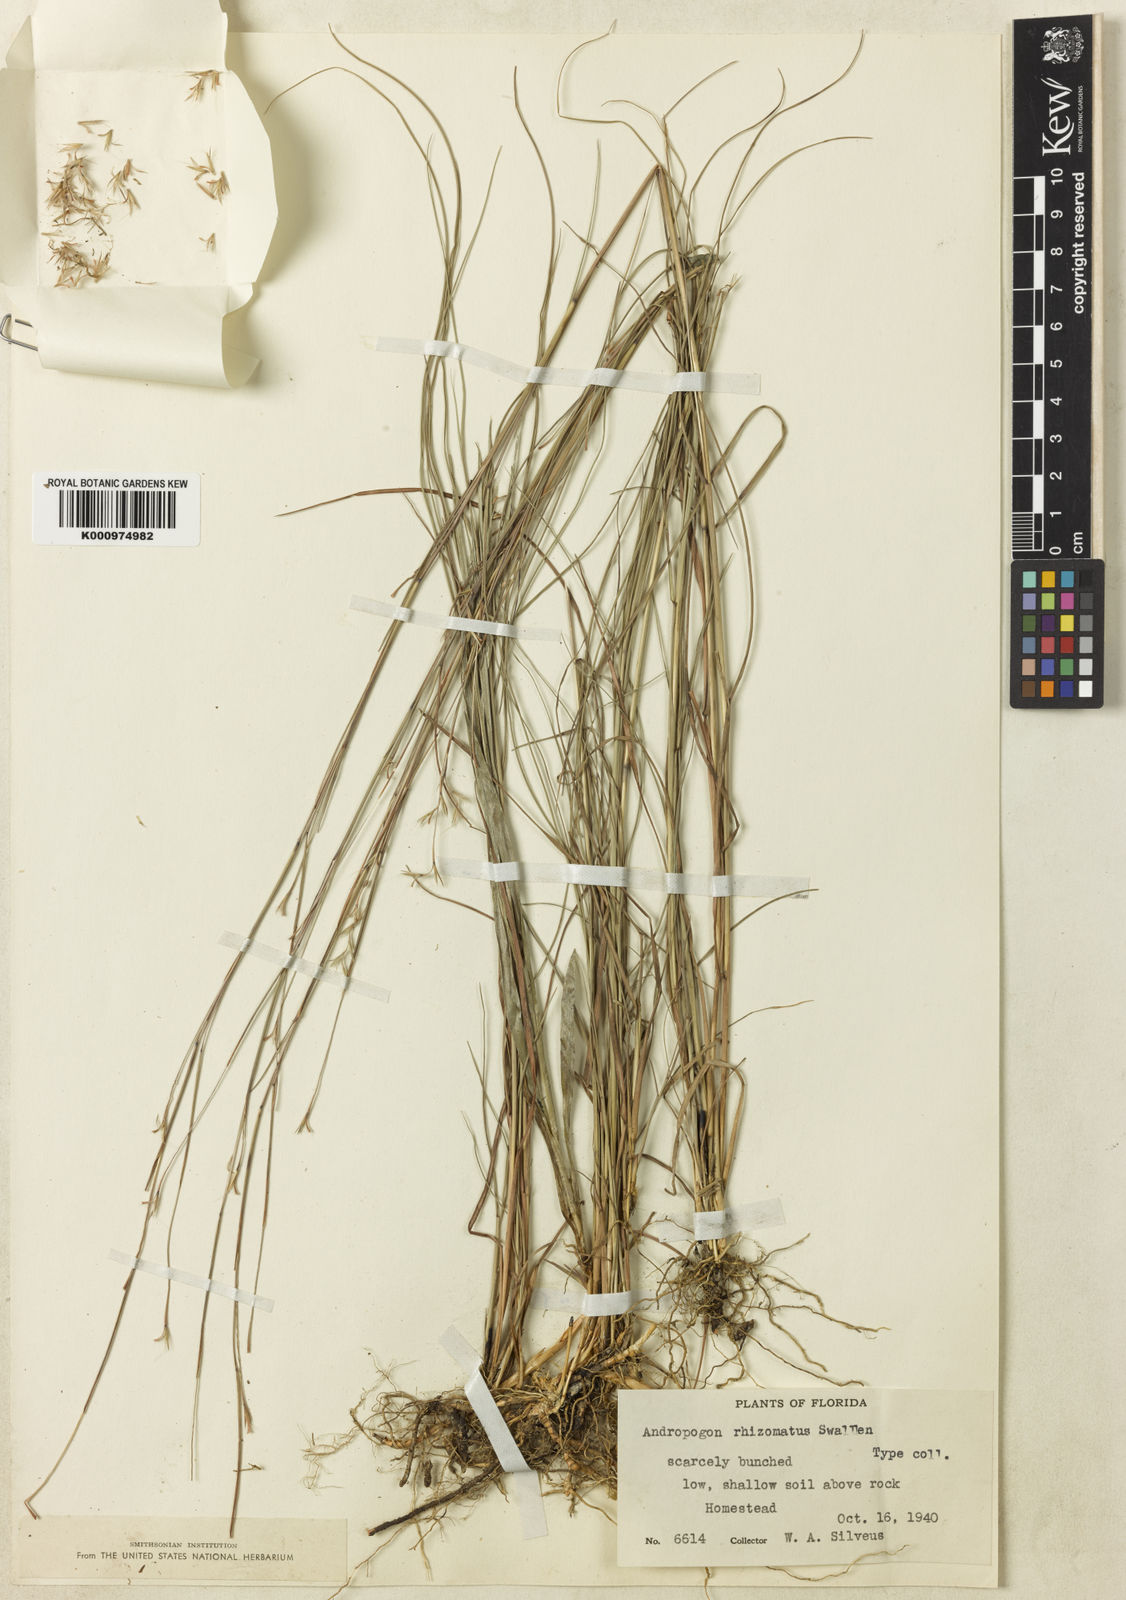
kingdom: Plantae
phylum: Tracheophyta
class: Liliopsida
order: Poales
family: Poaceae
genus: Schizachyrium
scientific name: Schizachyrium rhizomatum
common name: Florida little bluestem
